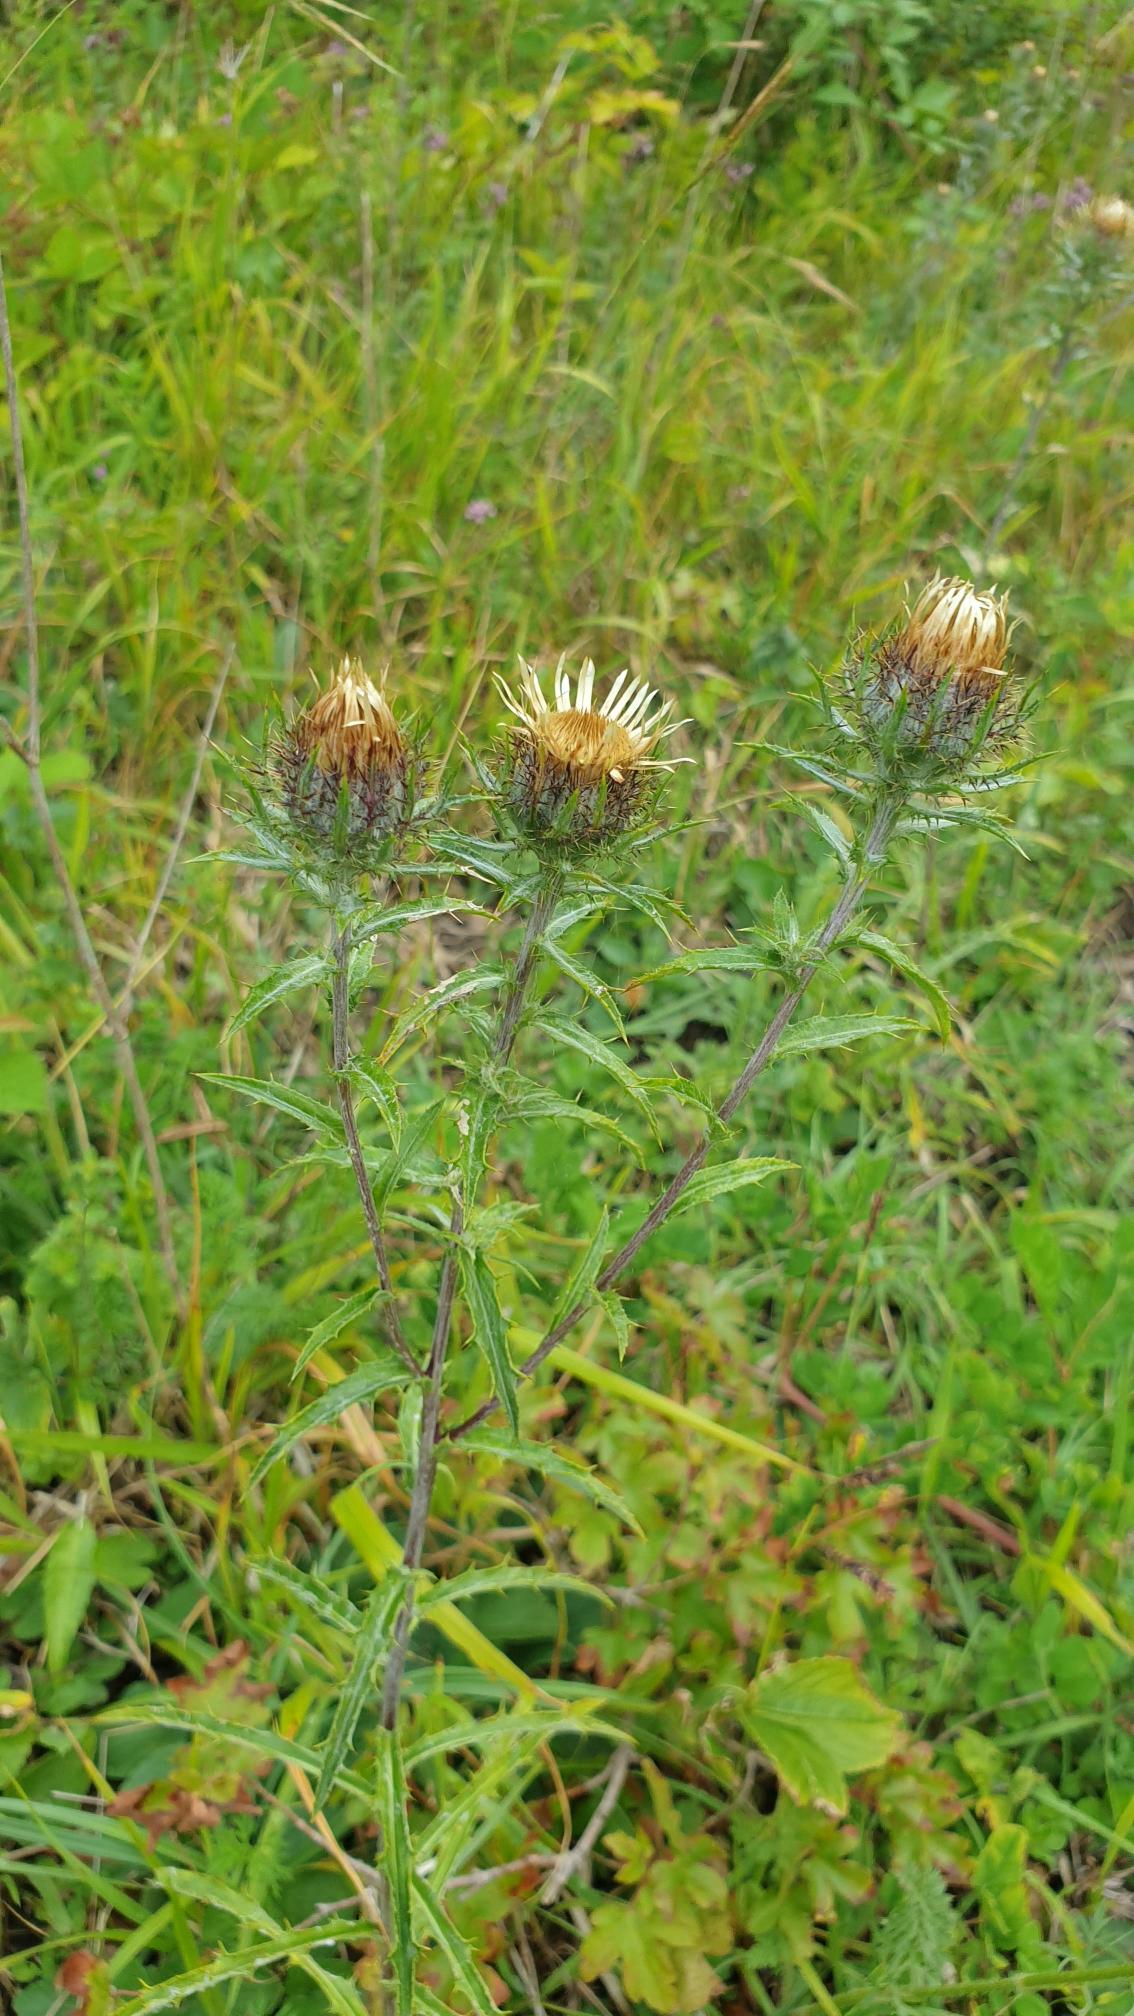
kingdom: Plantae
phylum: Tracheophyta
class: Magnoliopsida
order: Asterales
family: Asteraceae
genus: Carlina
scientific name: Carlina vulgaris
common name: Bakketidsel
